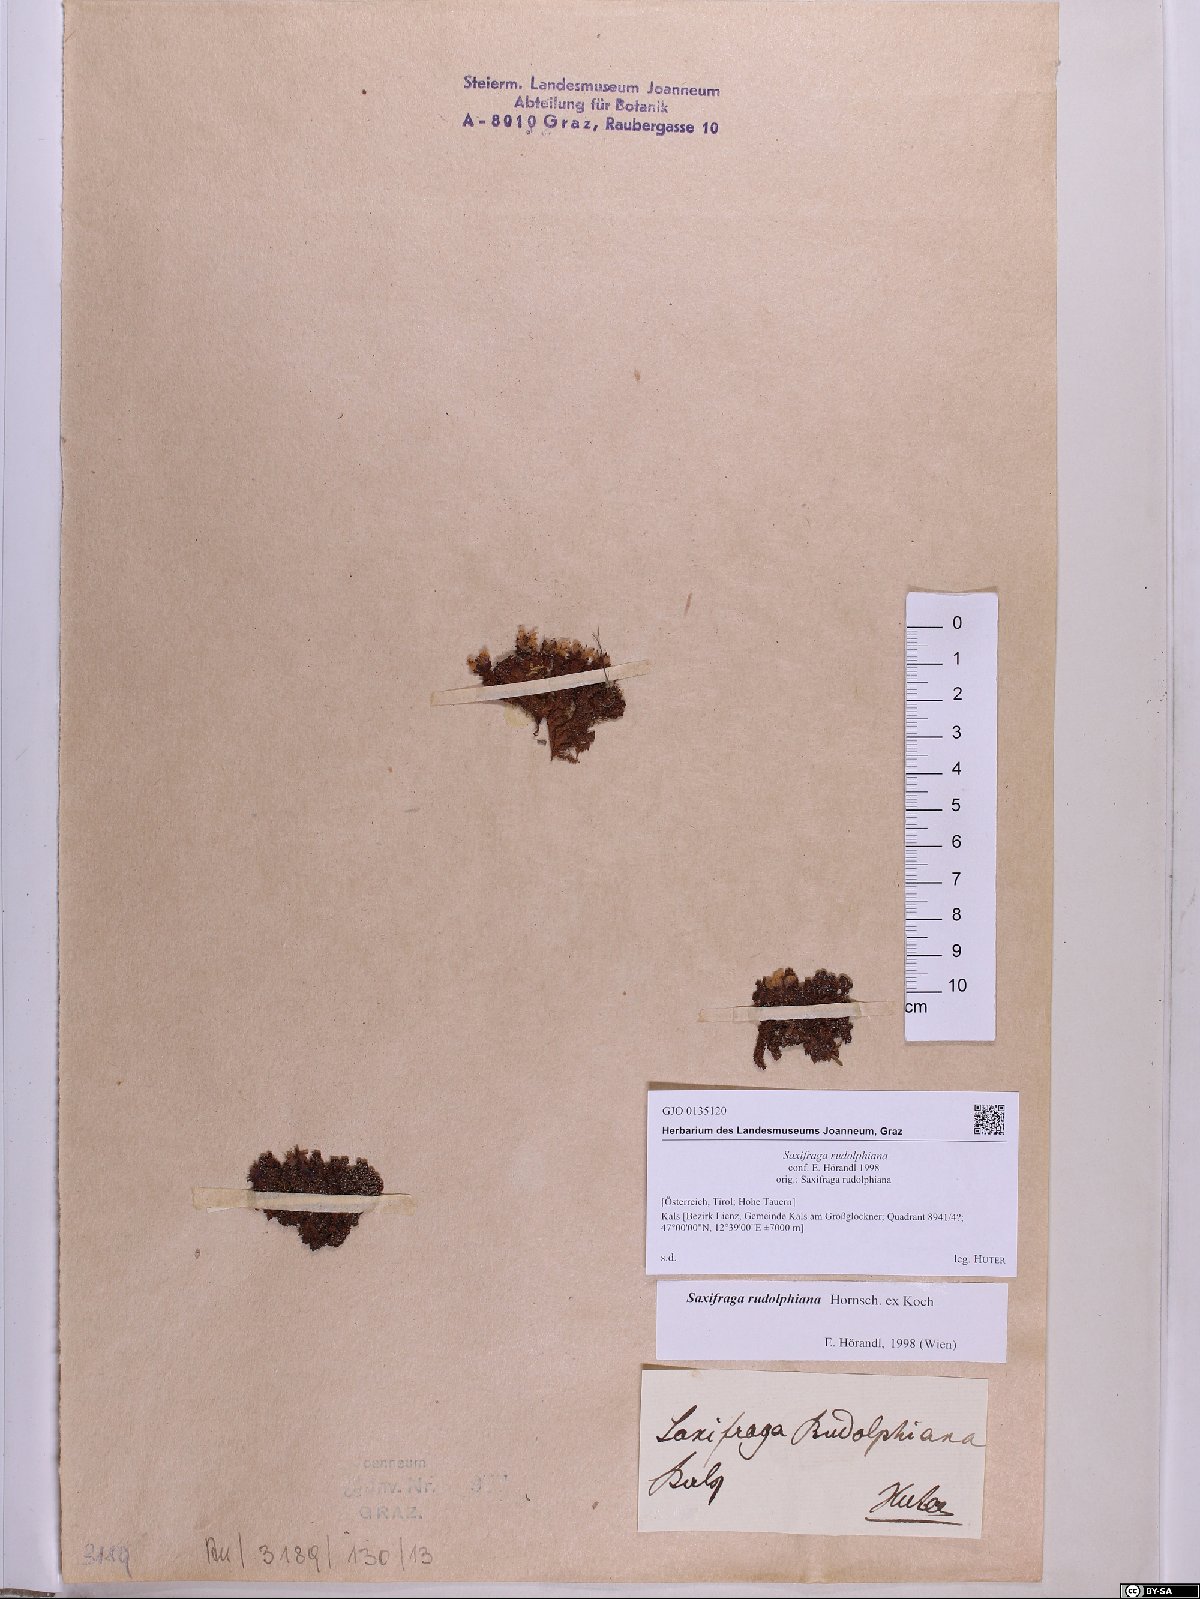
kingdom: Plantae
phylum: Tracheophyta
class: Magnoliopsida
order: Saxifragales
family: Saxifragaceae
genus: Saxifraga
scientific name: Saxifraga oppositifolia
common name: Purple saxifrage
